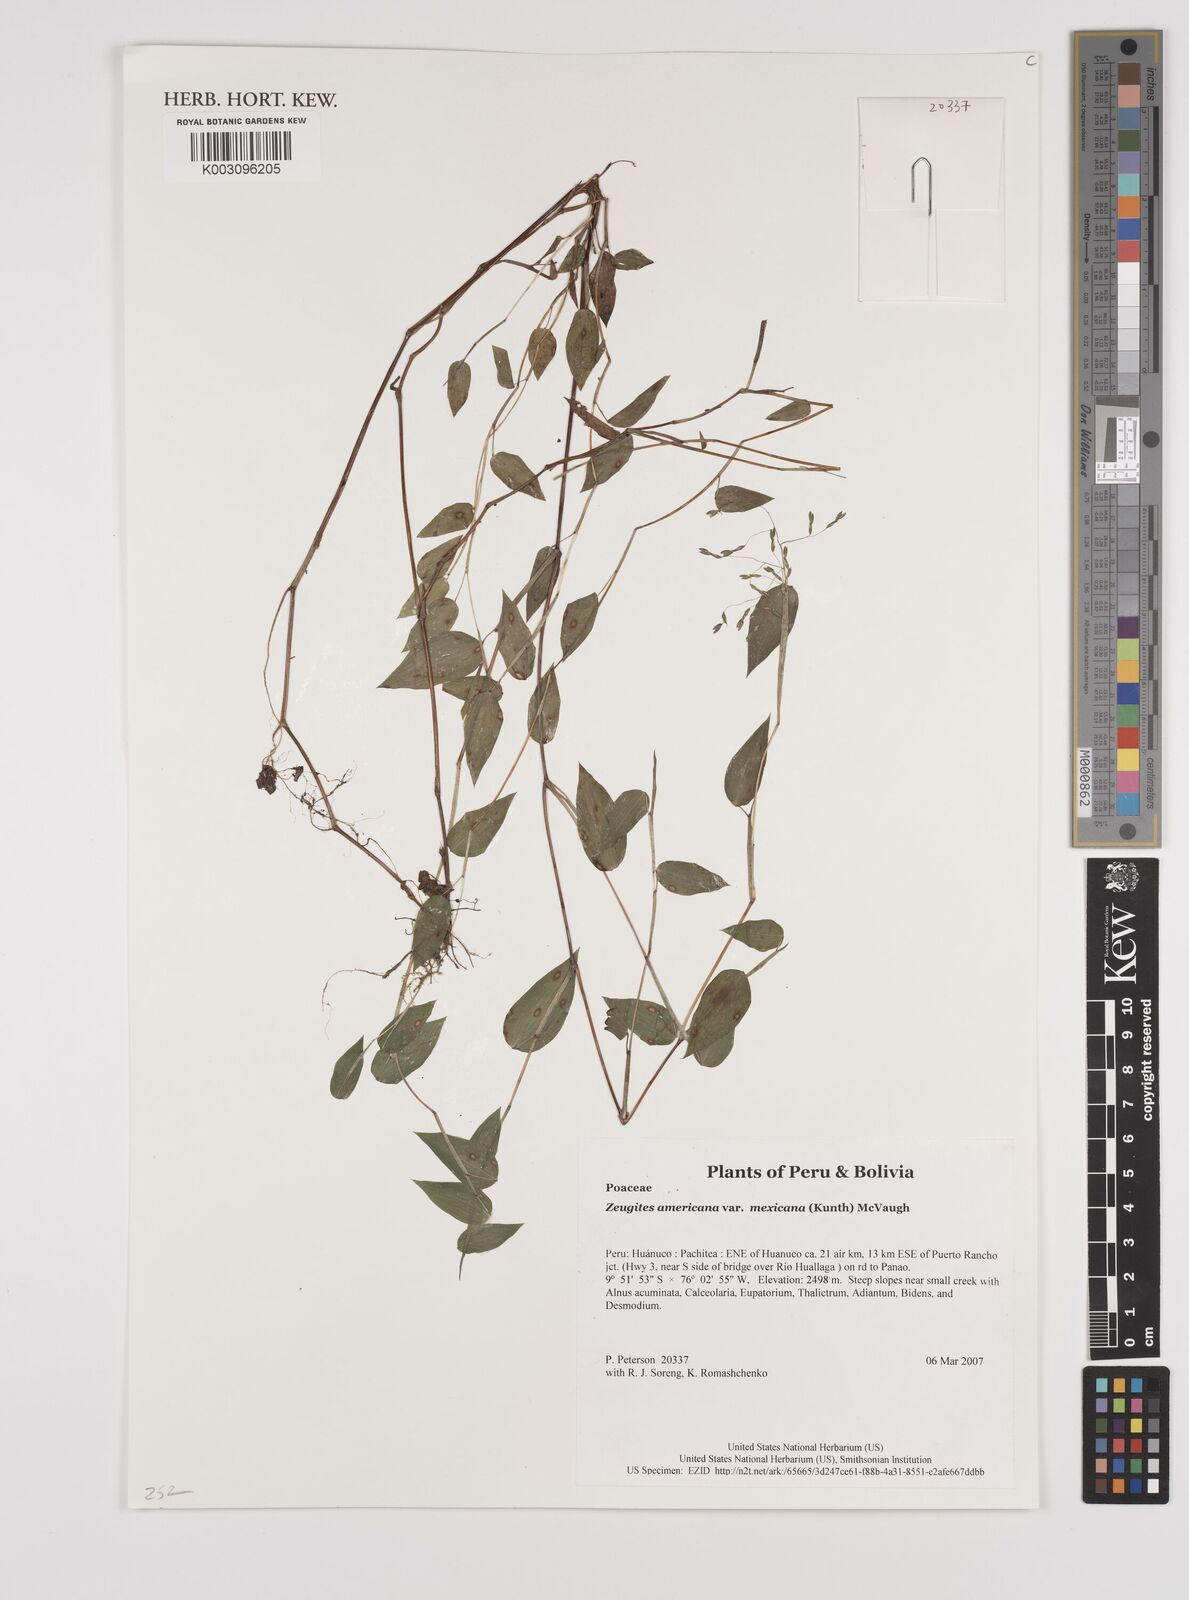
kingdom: Plantae
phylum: Tracheophyta
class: Liliopsida
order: Poales
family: Poaceae
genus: Zeugites
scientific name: Zeugites americanus
